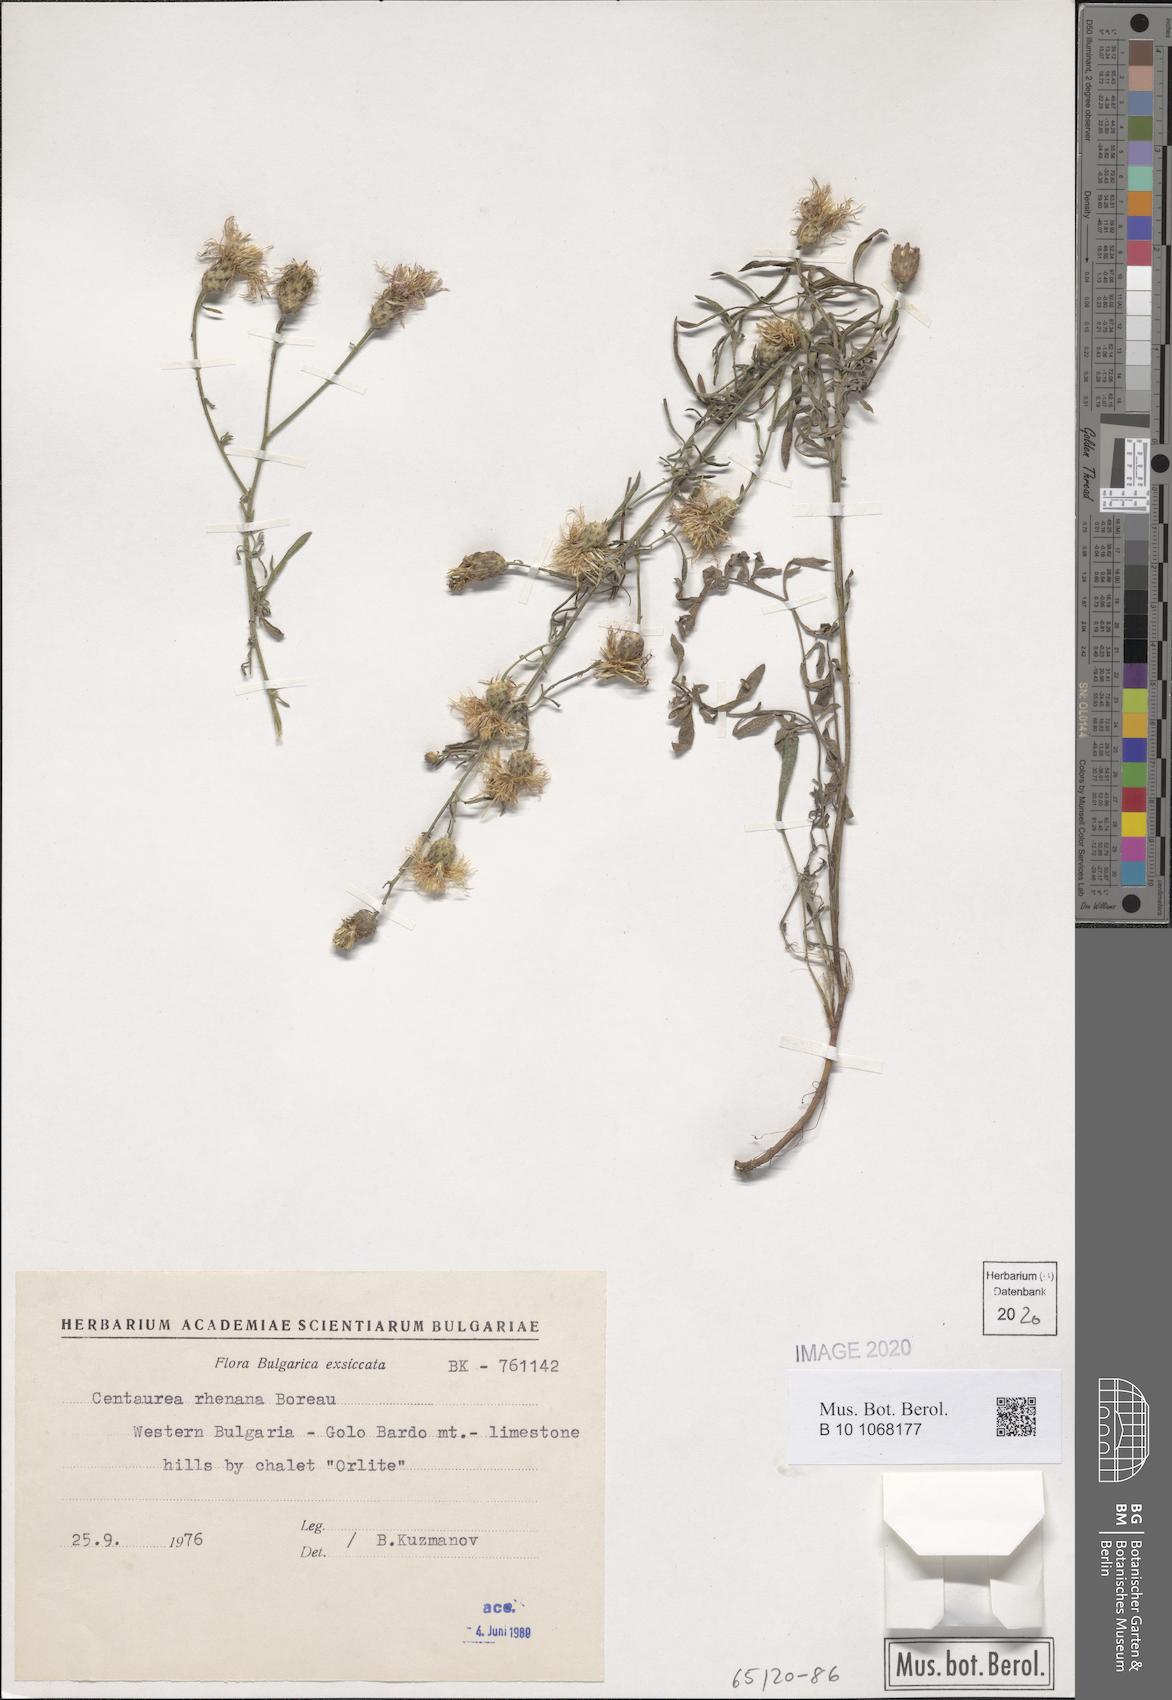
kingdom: Plantae
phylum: Tracheophyta
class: Magnoliopsida
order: Asterales
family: Asteraceae
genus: Centaurea
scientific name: Centaurea stoebe
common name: Spotted knapweed
